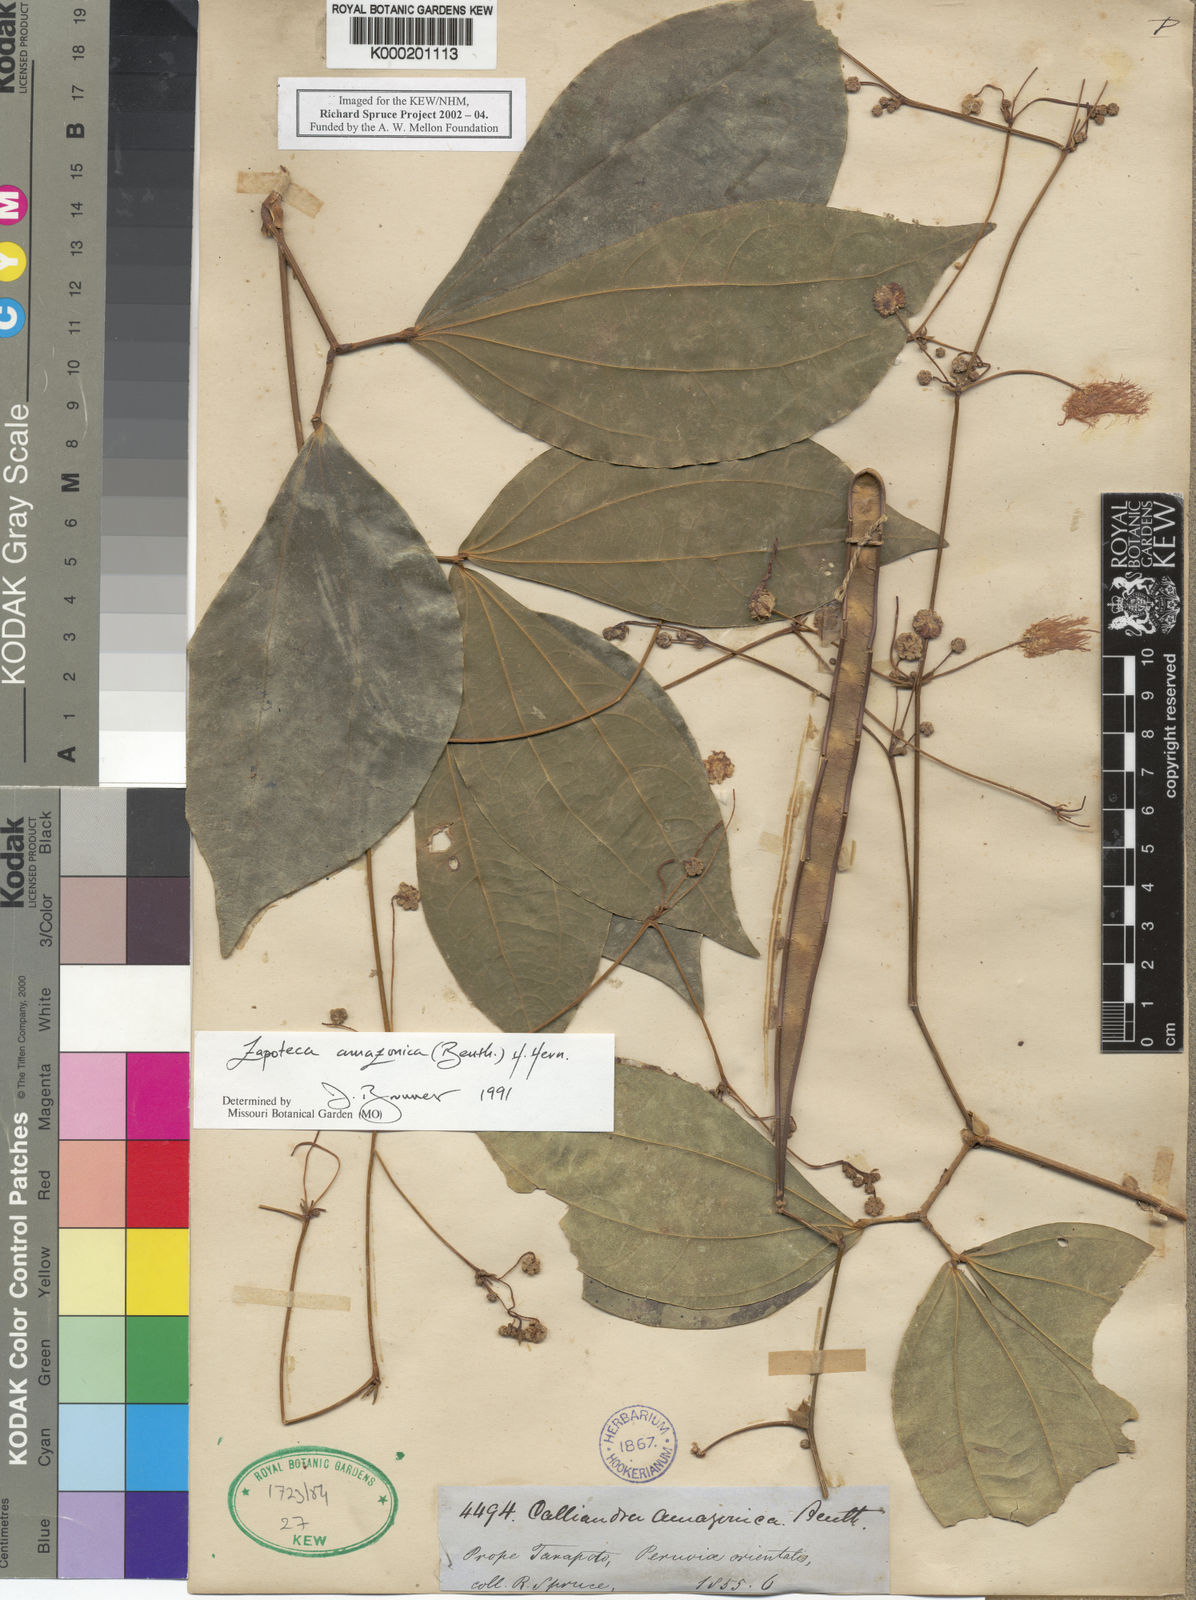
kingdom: Plantae
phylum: Tracheophyta
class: Magnoliopsida
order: Fabales
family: Fabaceae
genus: Zapoteca
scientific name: Zapoteca amazonica
